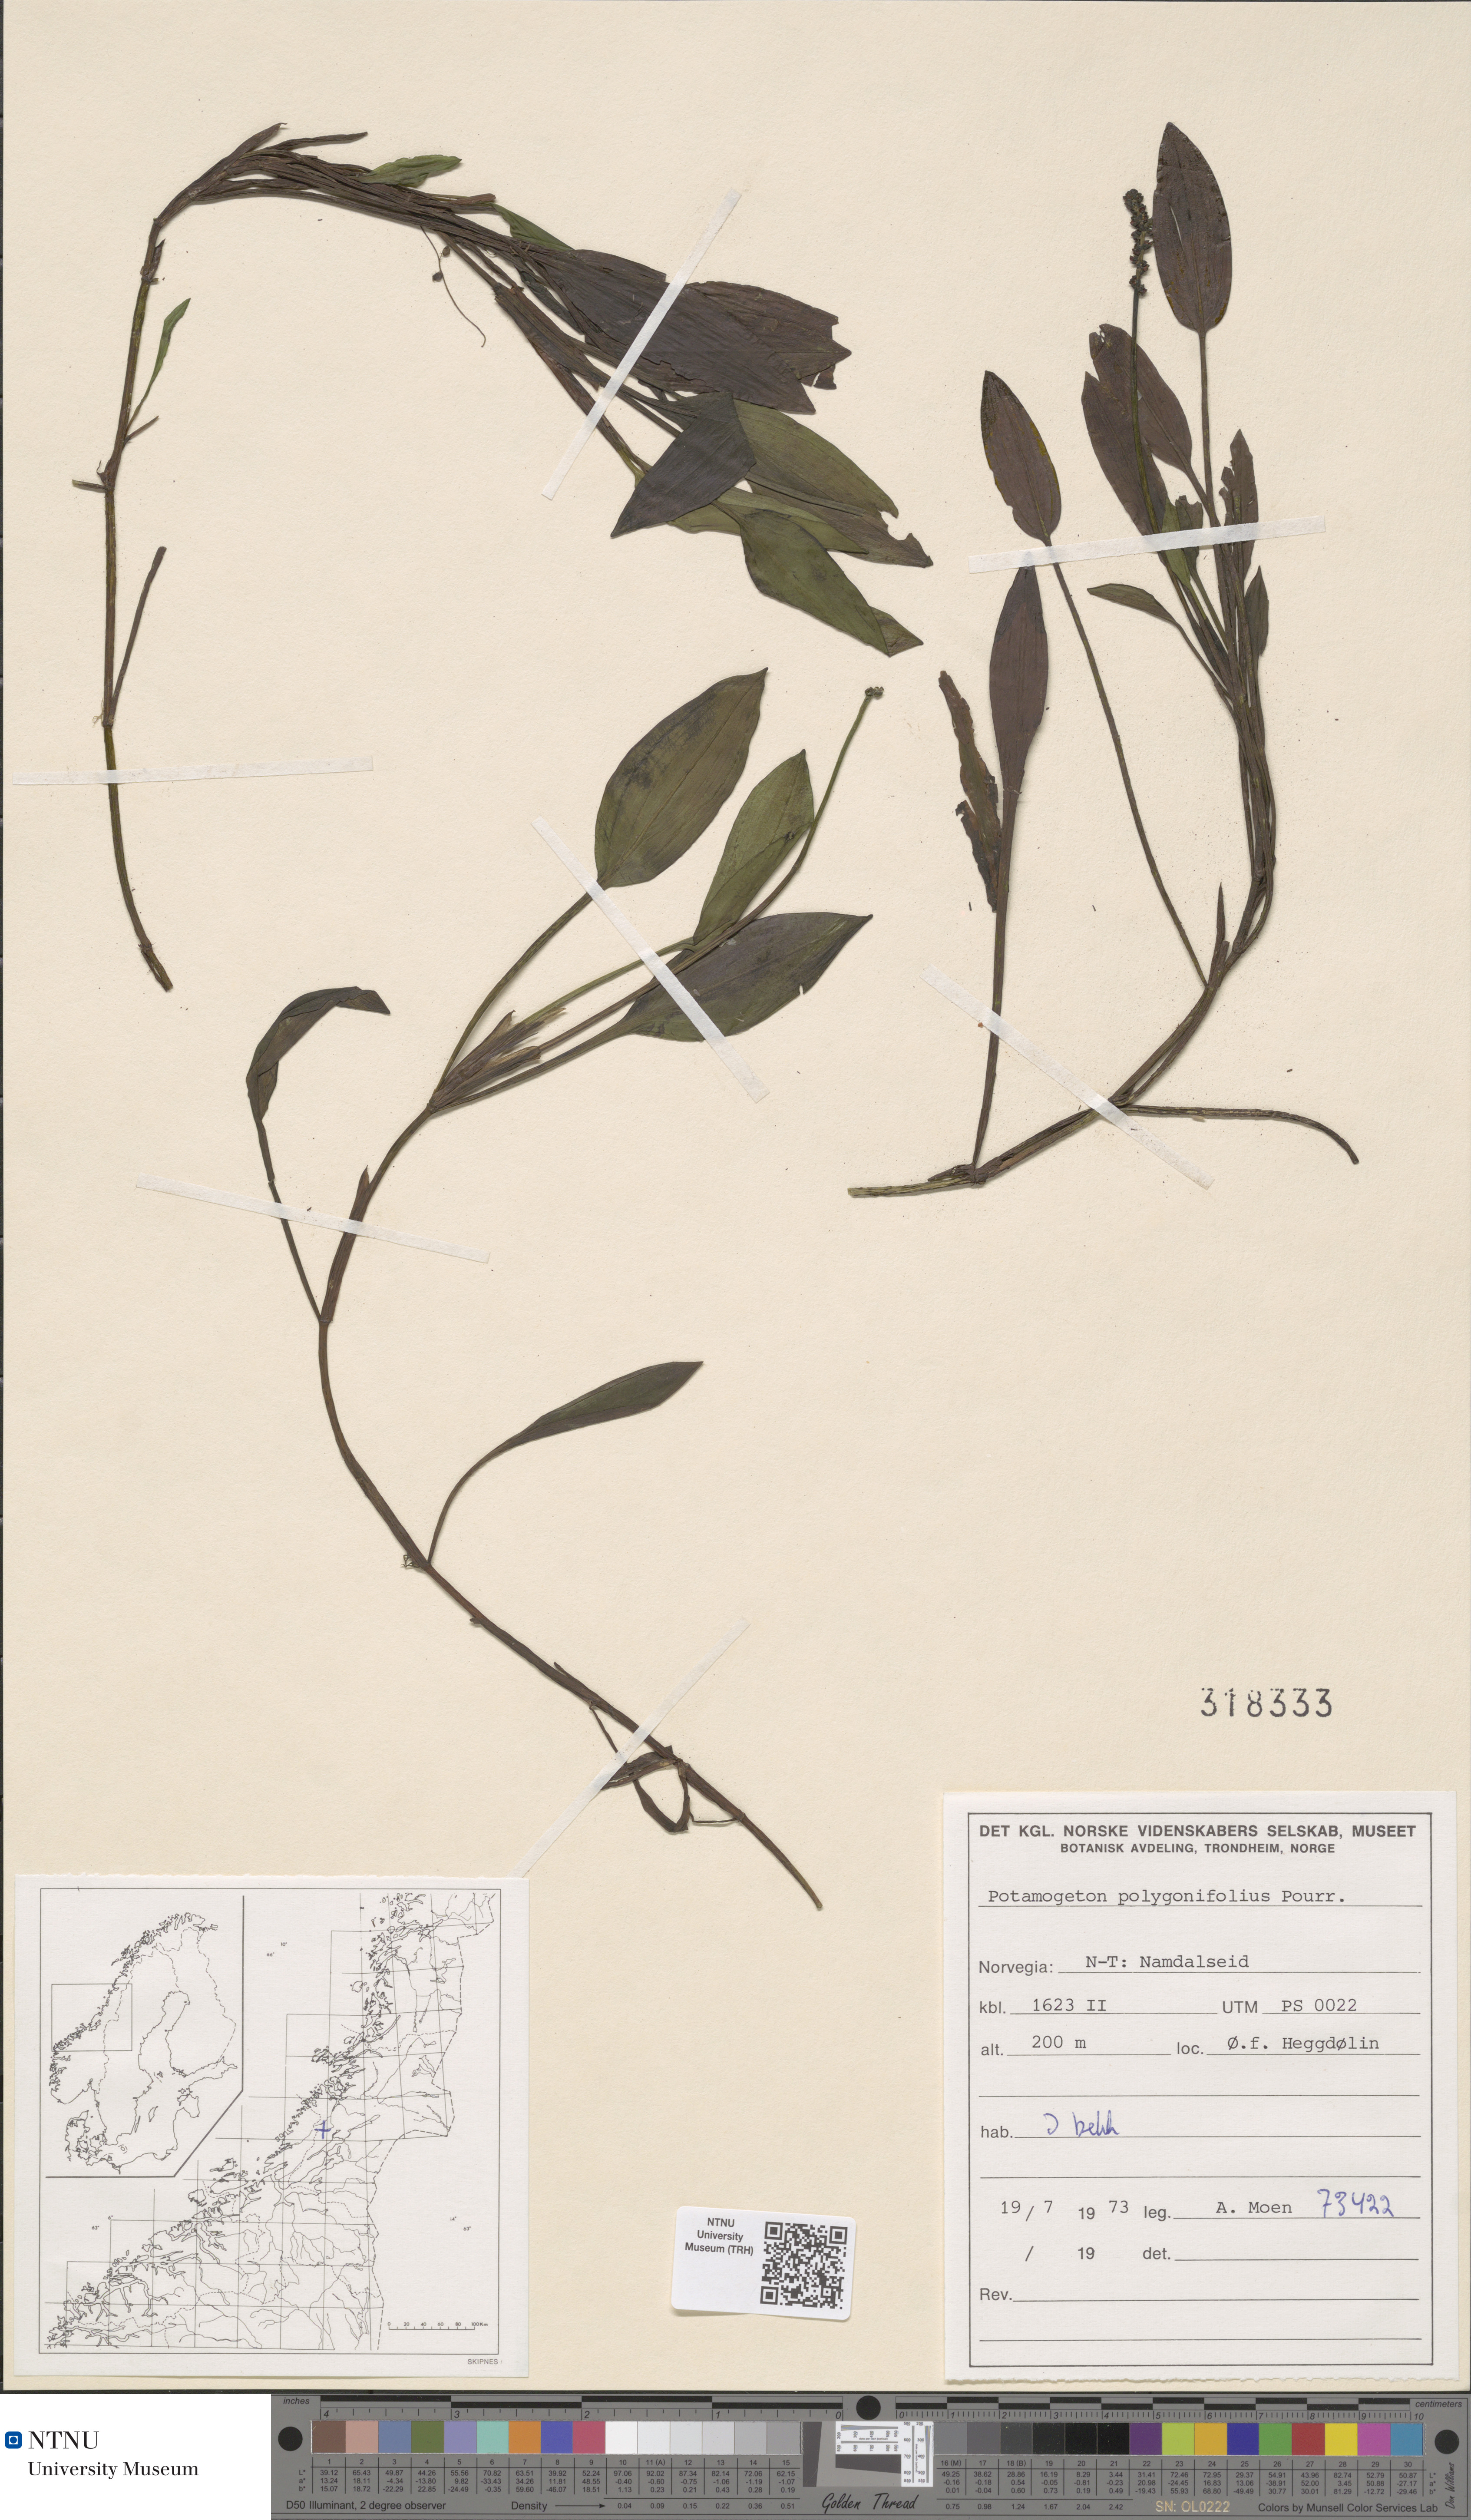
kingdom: Plantae
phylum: Tracheophyta
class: Liliopsida
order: Alismatales
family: Potamogetonaceae
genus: Potamogeton
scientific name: Potamogeton polygonifolius
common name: Bog pondweed
